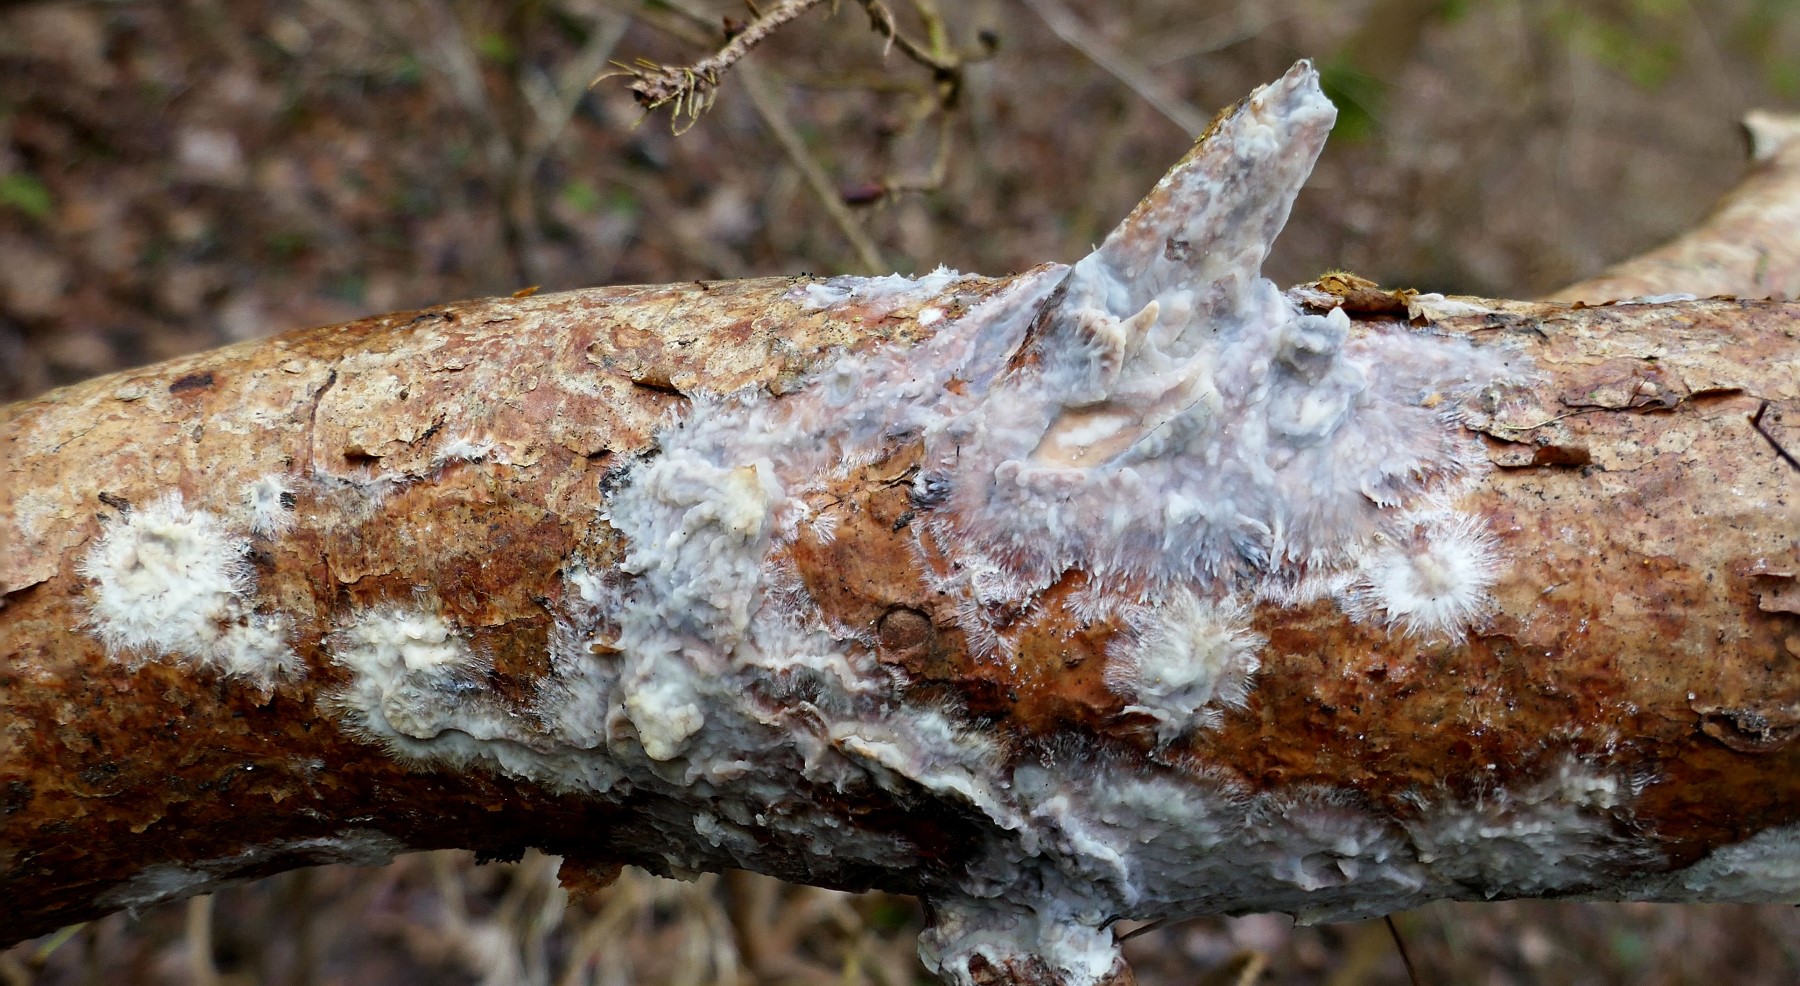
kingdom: Fungi
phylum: Basidiomycota
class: Agaricomycetes
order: Polyporales
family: Phanerochaetaceae
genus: Phlebiopsis
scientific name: Phlebiopsis gigantea
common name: kæmpebarksvamp
